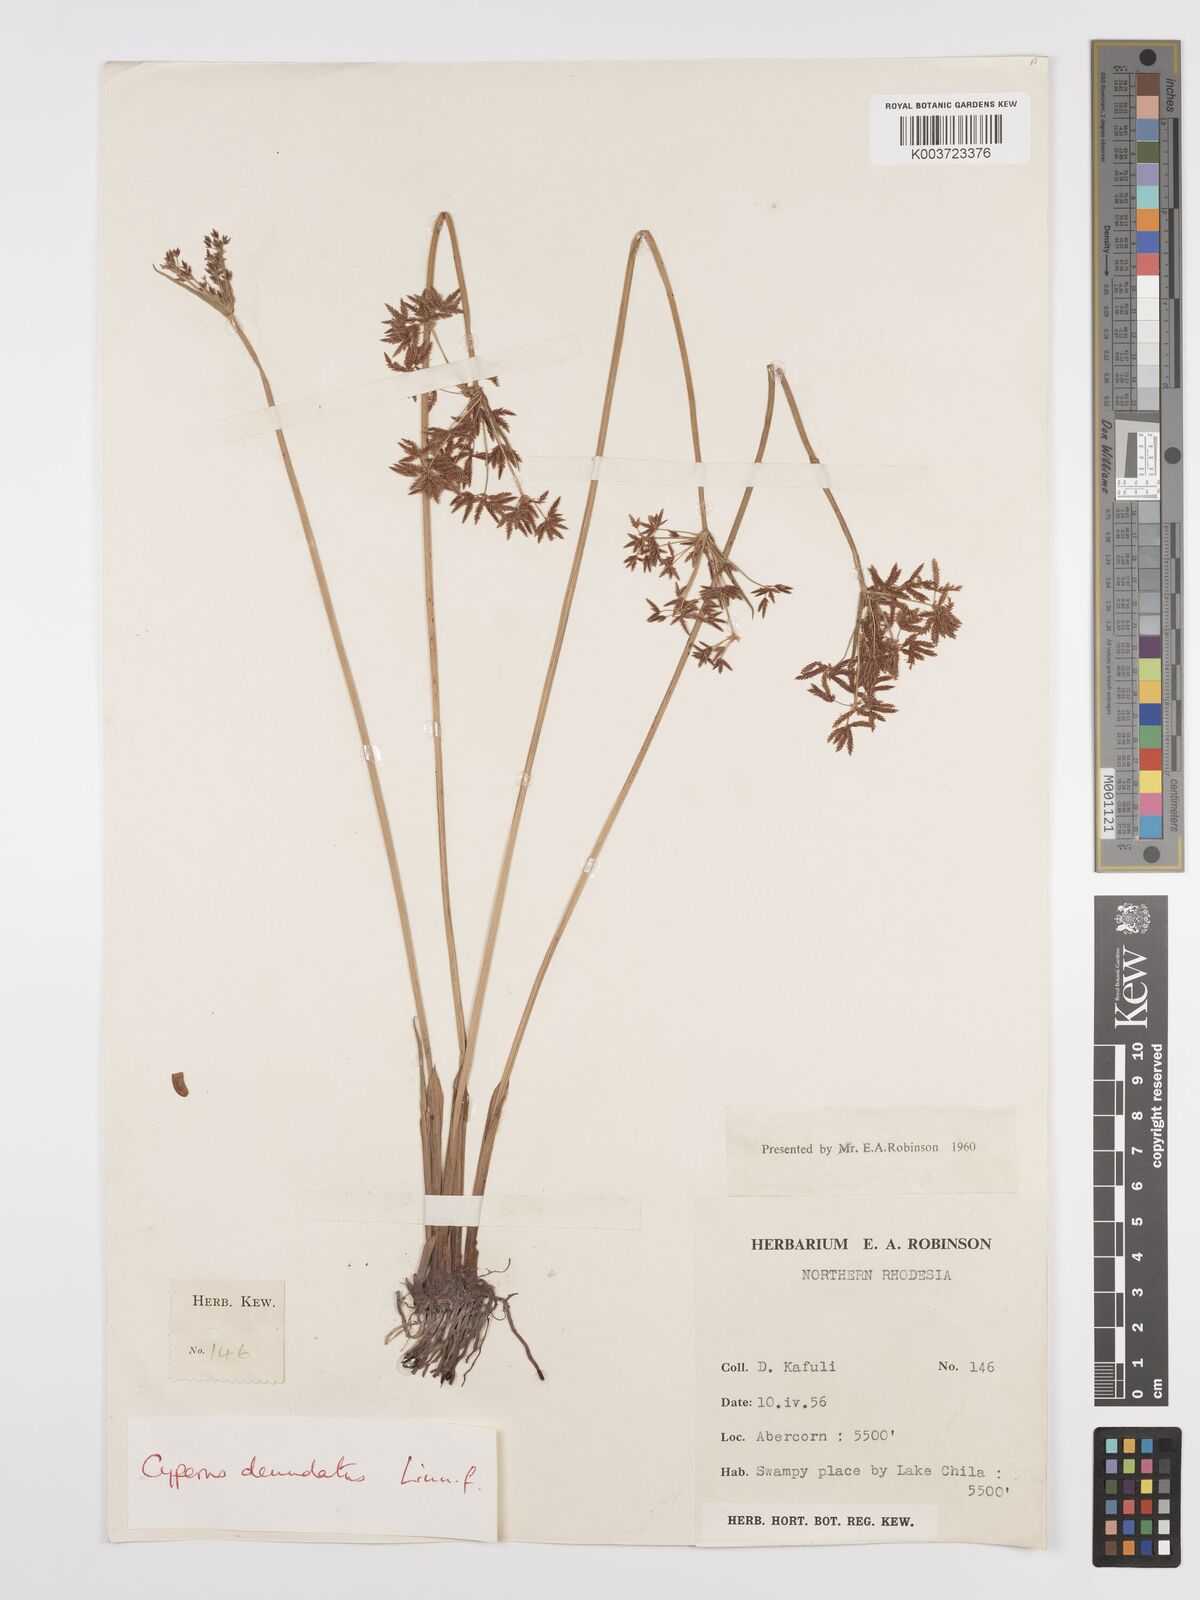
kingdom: Plantae
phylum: Tracheophyta
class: Liliopsida
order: Poales
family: Cyperaceae
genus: Cyperus
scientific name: Cyperus denudatus
